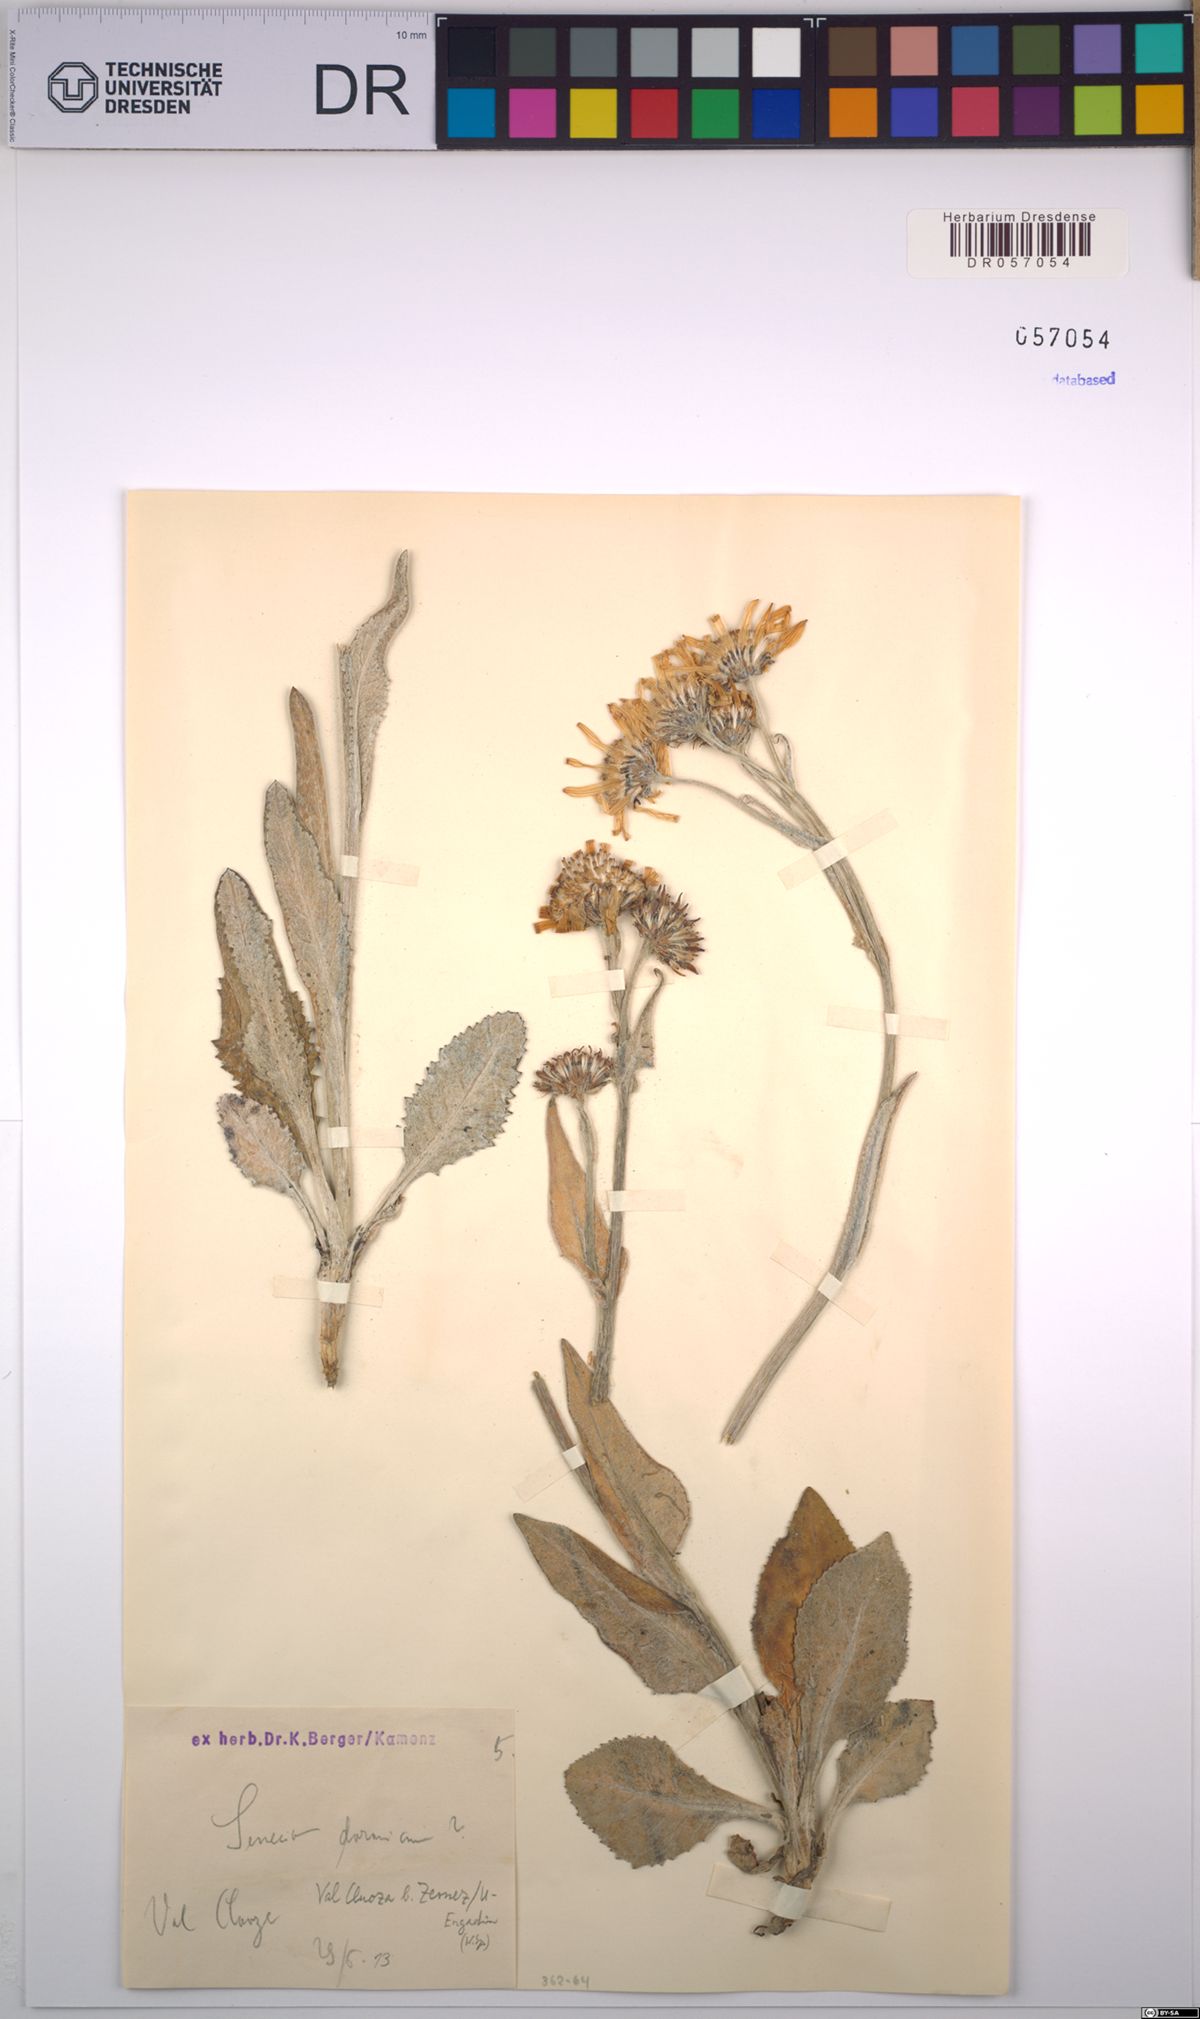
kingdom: Plantae
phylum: Tracheophyta
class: Magnoliopsida
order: Asterales
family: Asteraceae
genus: Senecio
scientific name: Senecio doronicum
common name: Chamois ragwort
